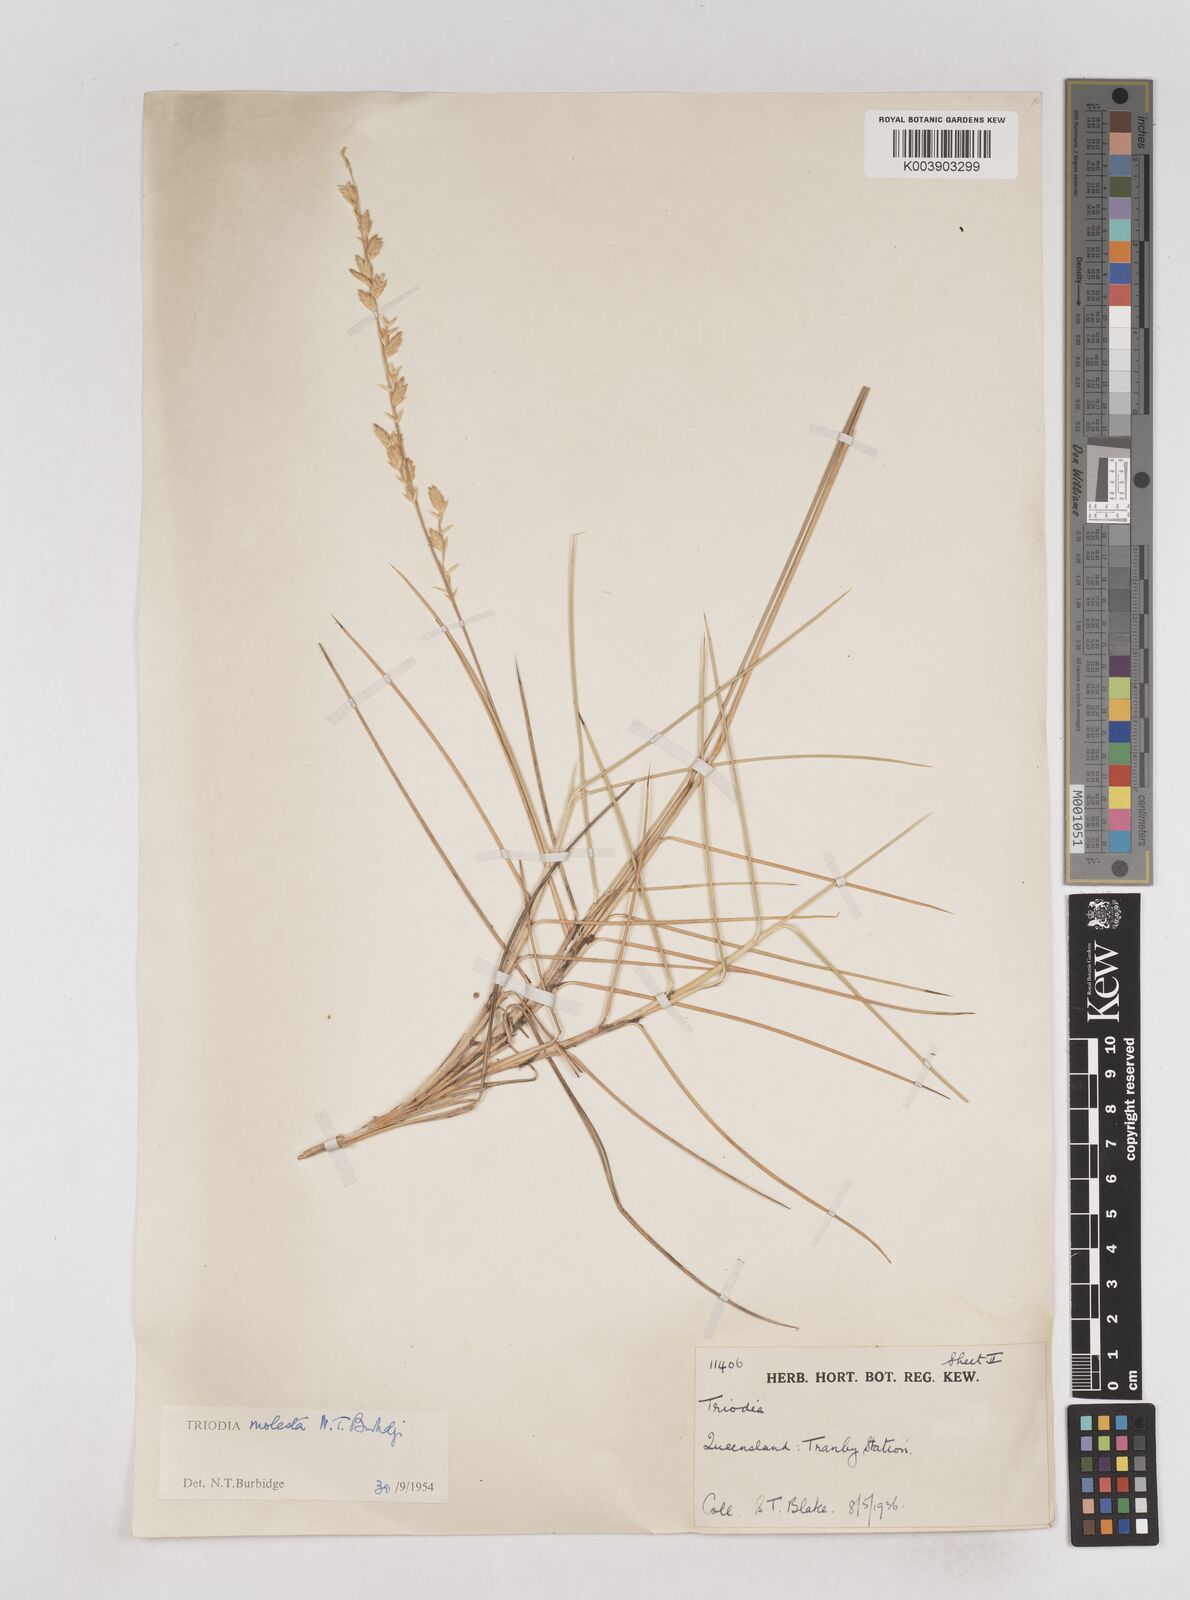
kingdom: Plantae
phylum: Tracheophyta
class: Liliopsida
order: Poales
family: Poaceae
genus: Triodia
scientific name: Triodia molesta
